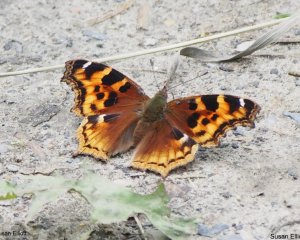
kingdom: Animalia
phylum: Arthropoda
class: Insecta
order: Lepidoptera
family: Nymphalidae
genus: Polygonia
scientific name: Polygonia vaualbum
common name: Compton Tortoiseshell
